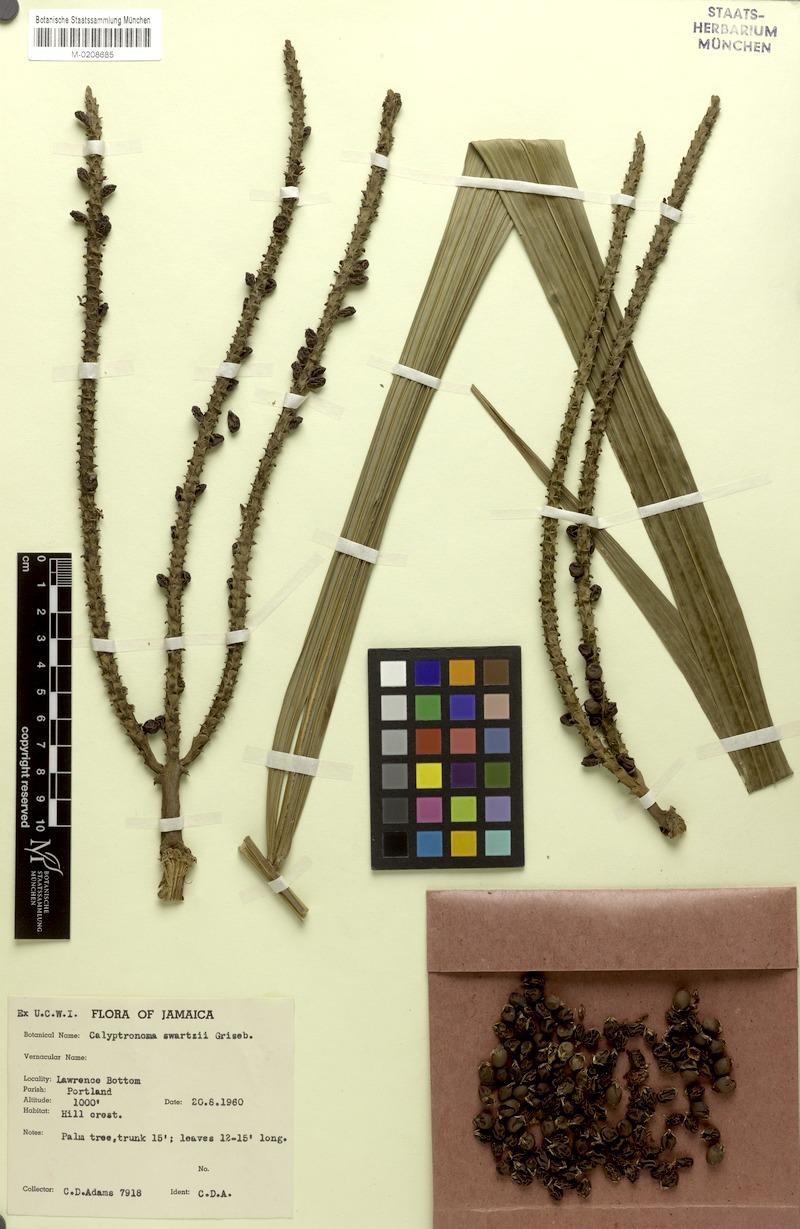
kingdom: Plantae
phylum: Tracheophyta
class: Liliopsida
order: Arecales
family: Arecaceae
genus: Calyptronoma
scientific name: Calyptronoma occidentalis
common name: Long-thatch palm
